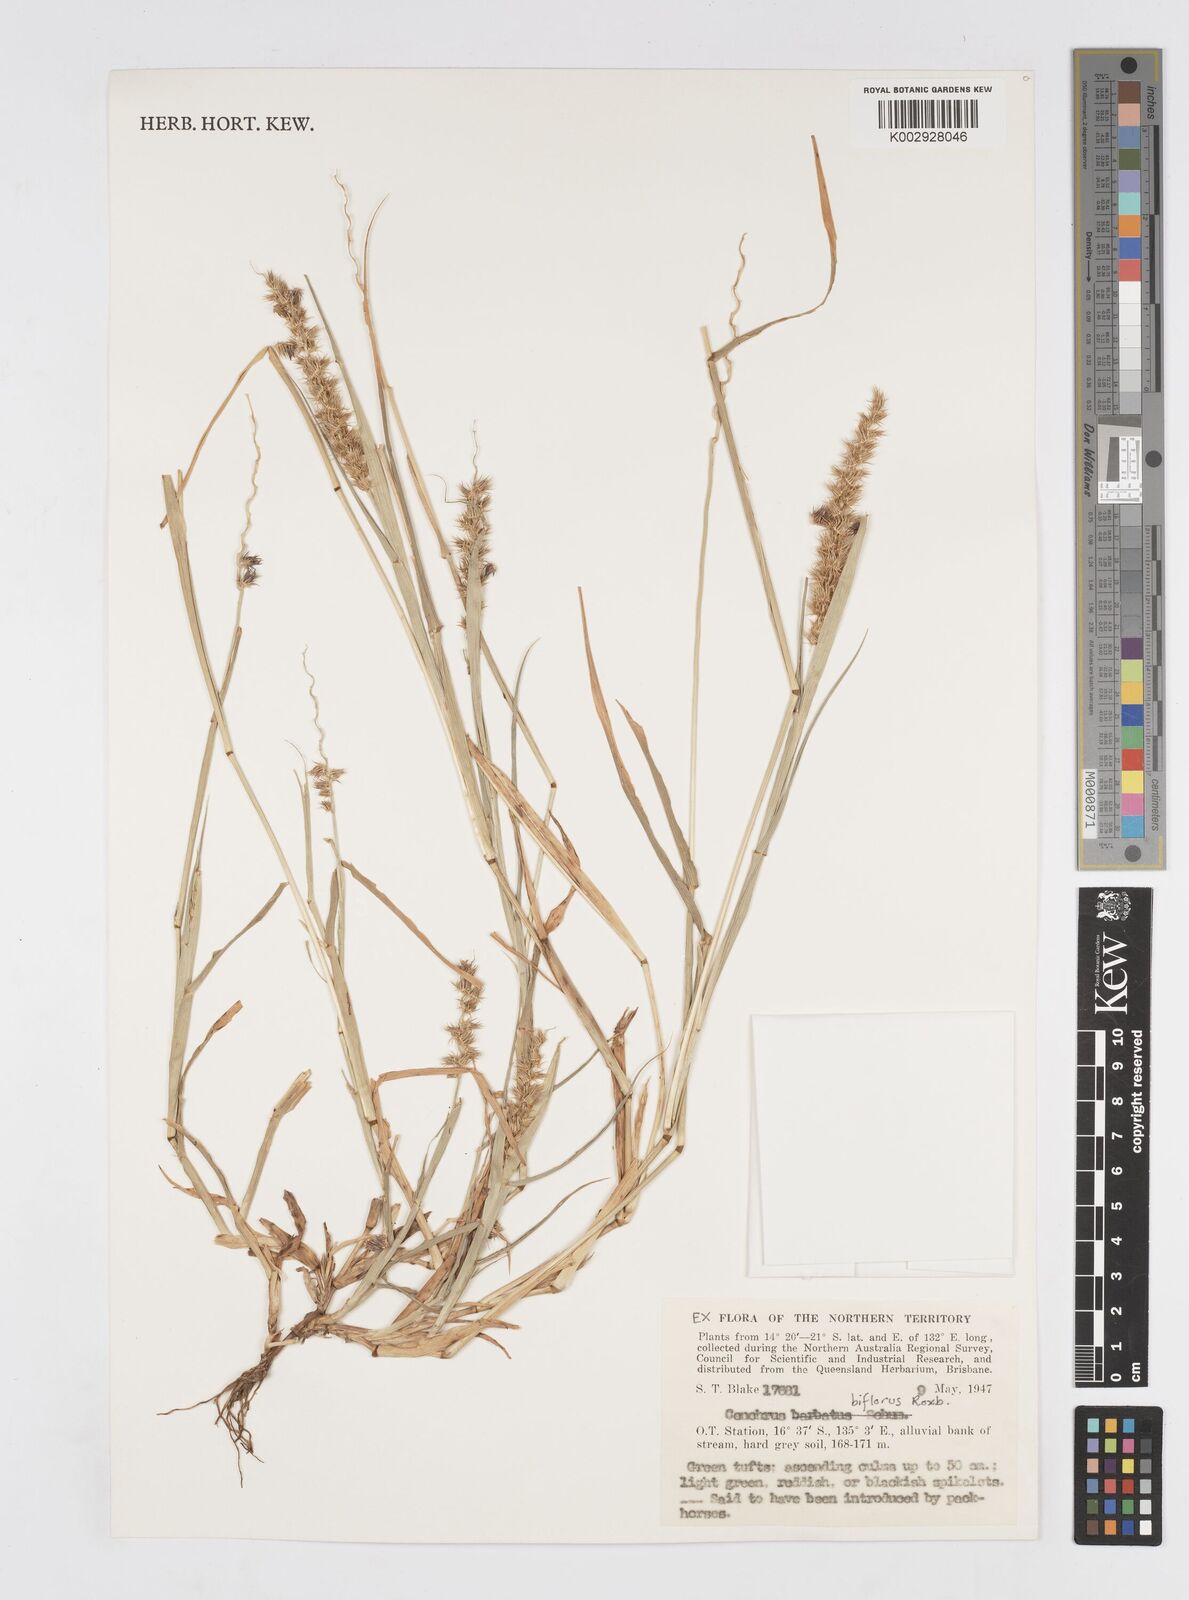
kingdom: Plantae
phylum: Tracheophyta
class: Liliopsida
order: Poales
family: Poaceae
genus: Cenchrus
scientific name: Cenchrus biflorus
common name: Indian sandbur
